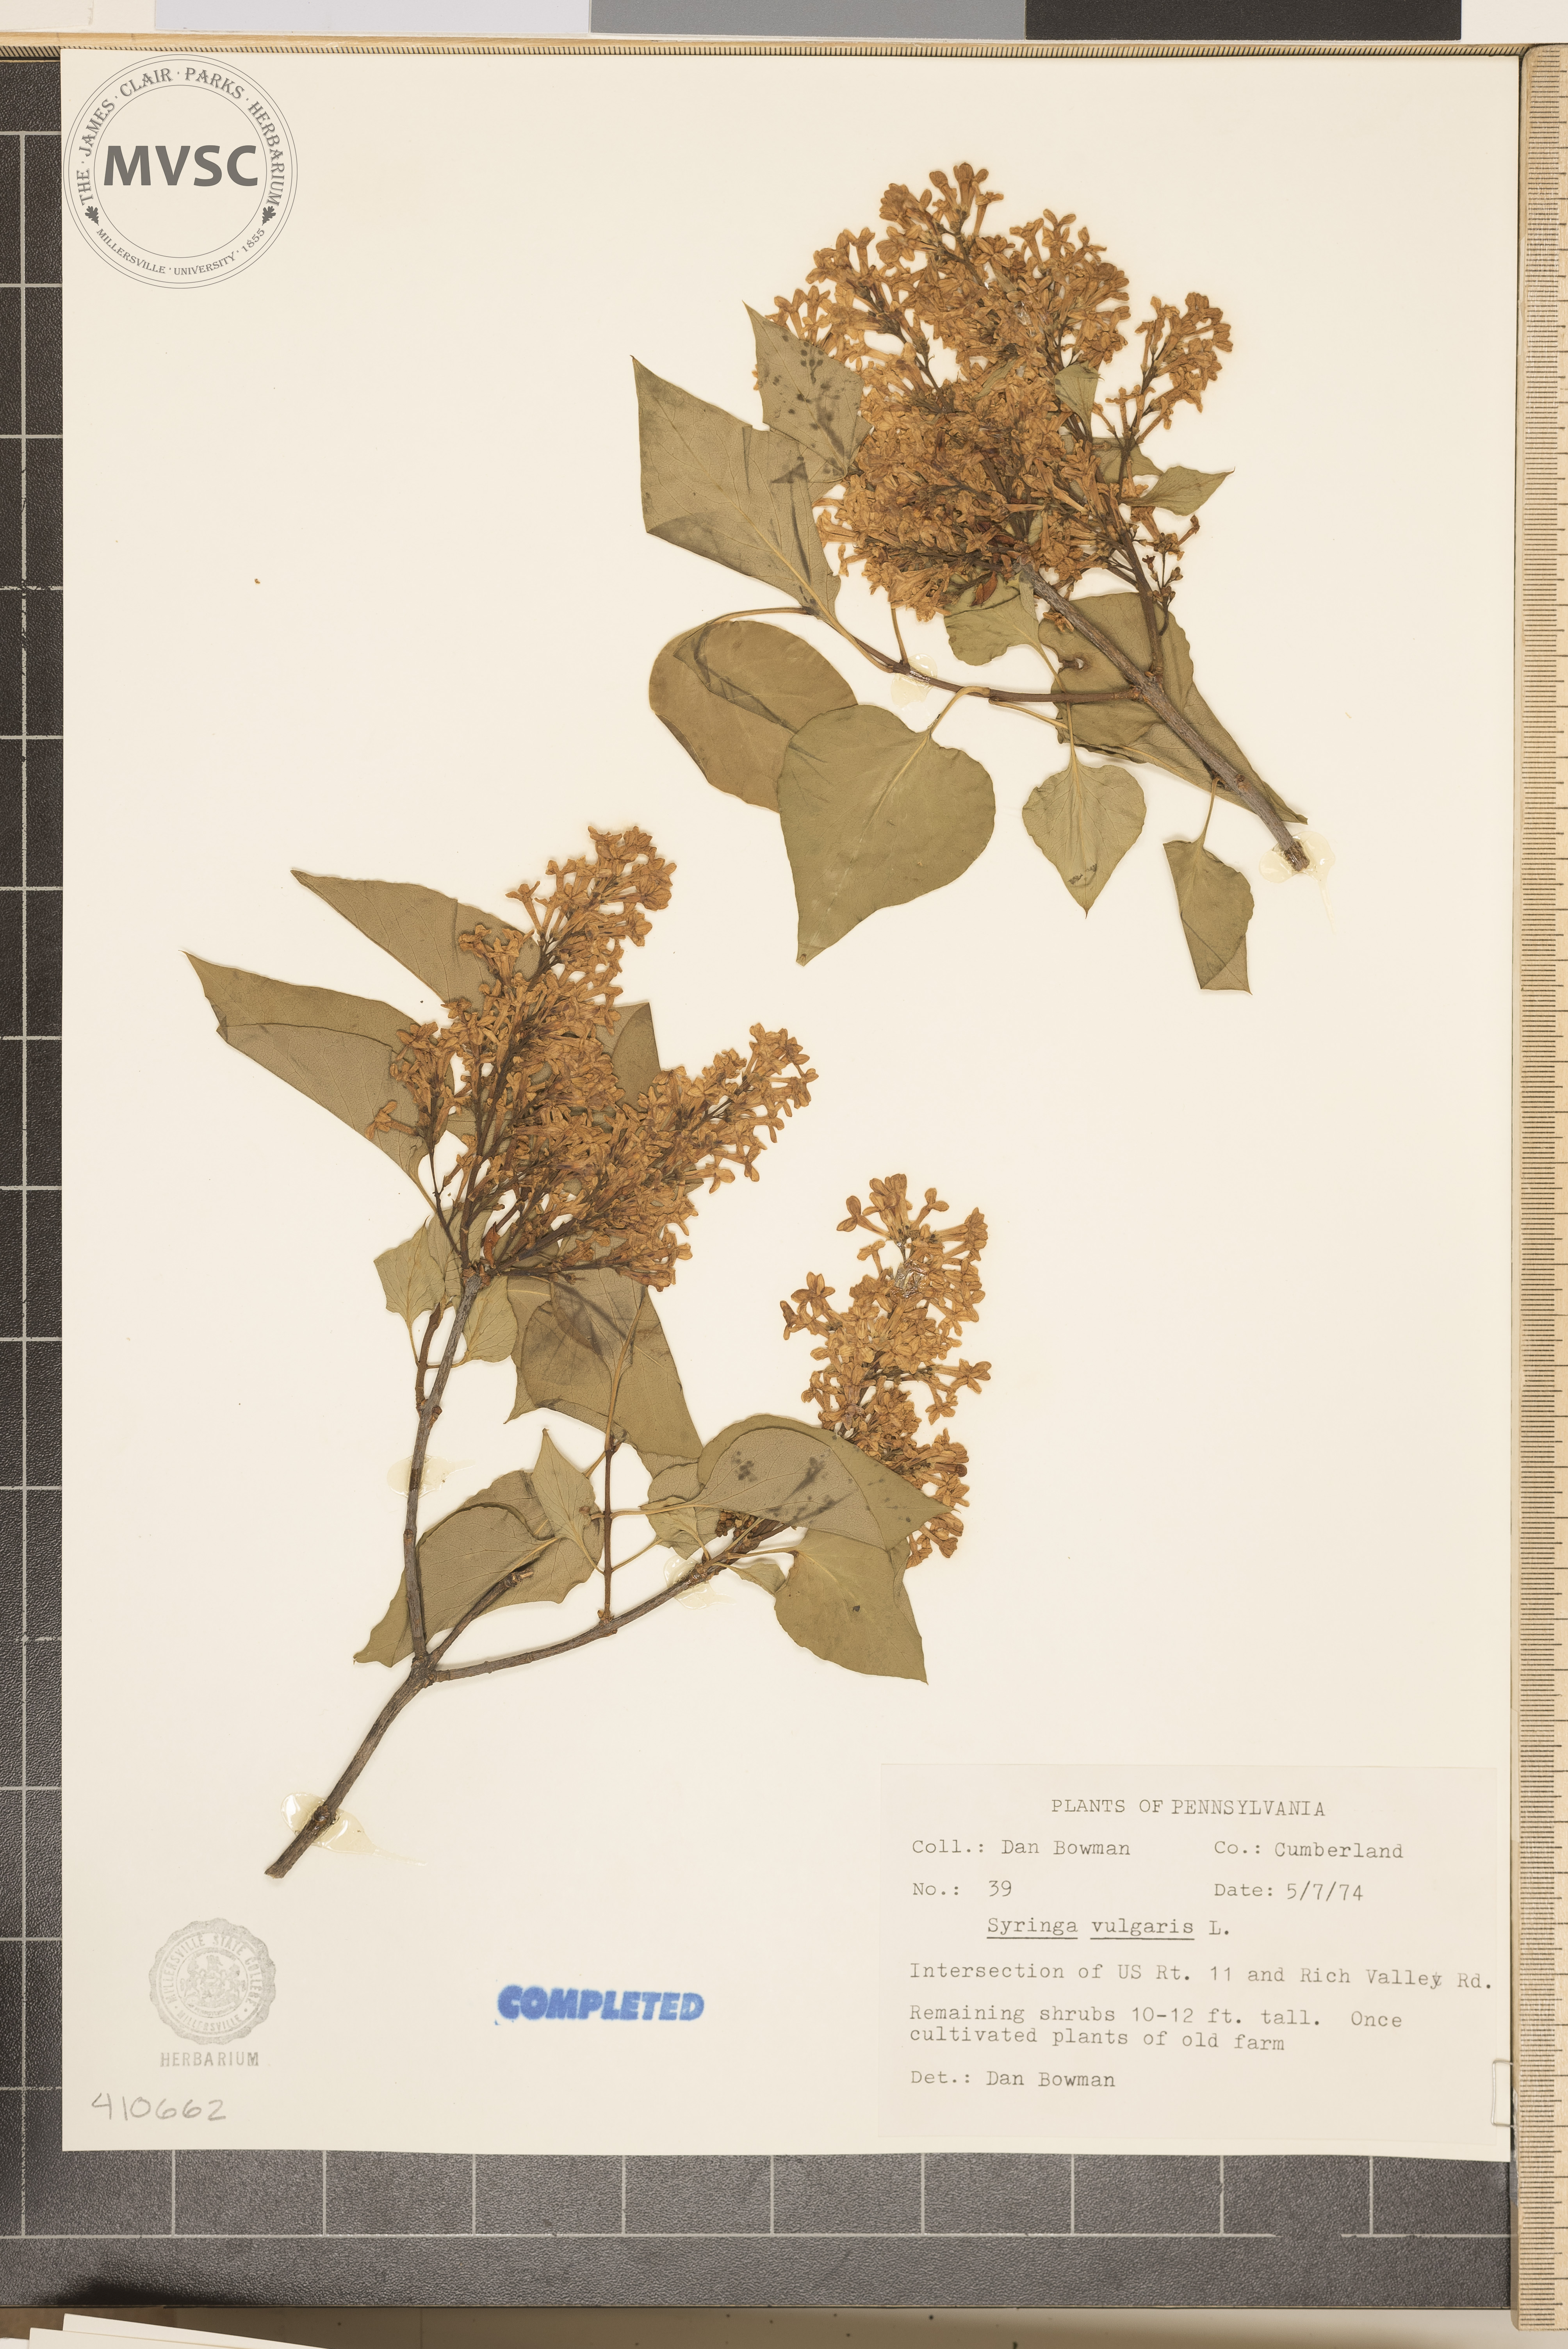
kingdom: Plantae
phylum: Tracheophyta
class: Magnoliopsida
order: Lamiales
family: Oleaceae
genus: Syringa
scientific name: Syringa vulgaris
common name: Common lilac
